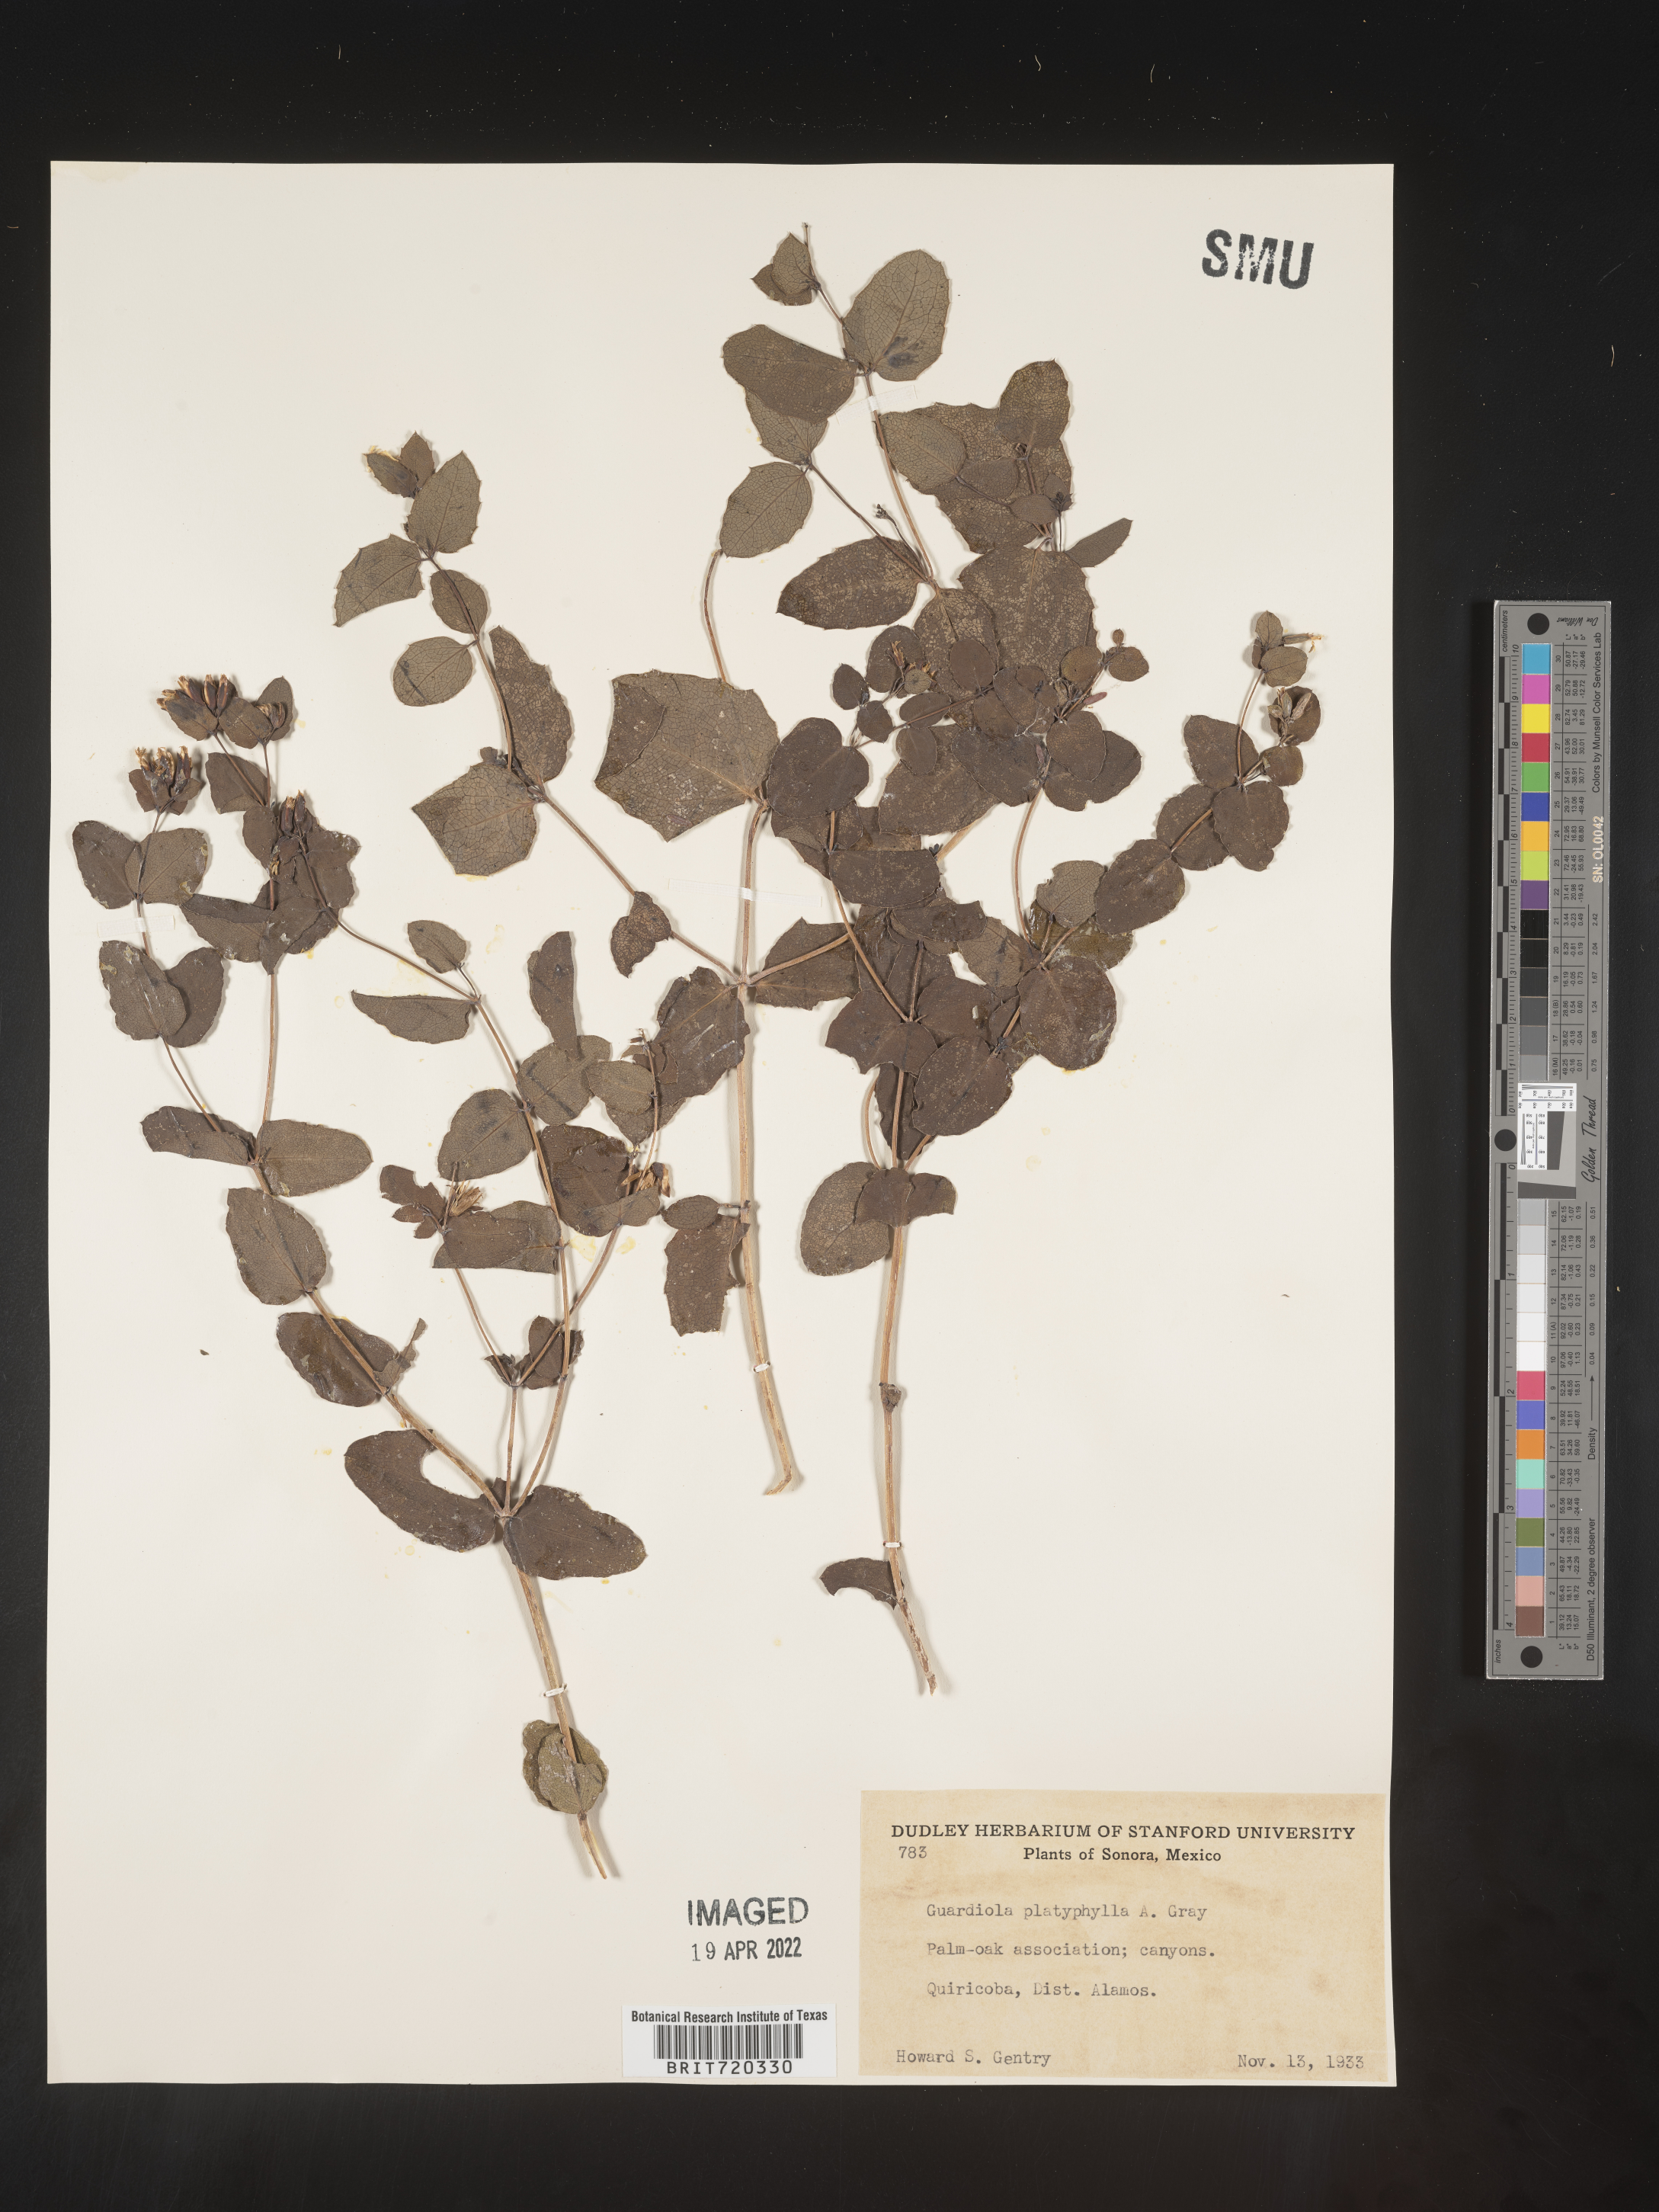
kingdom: Plantae
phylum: Tracheophyta
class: Magnoliopsida
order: Asterales
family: Asteraceae
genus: Guardiola
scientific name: Guardiola
